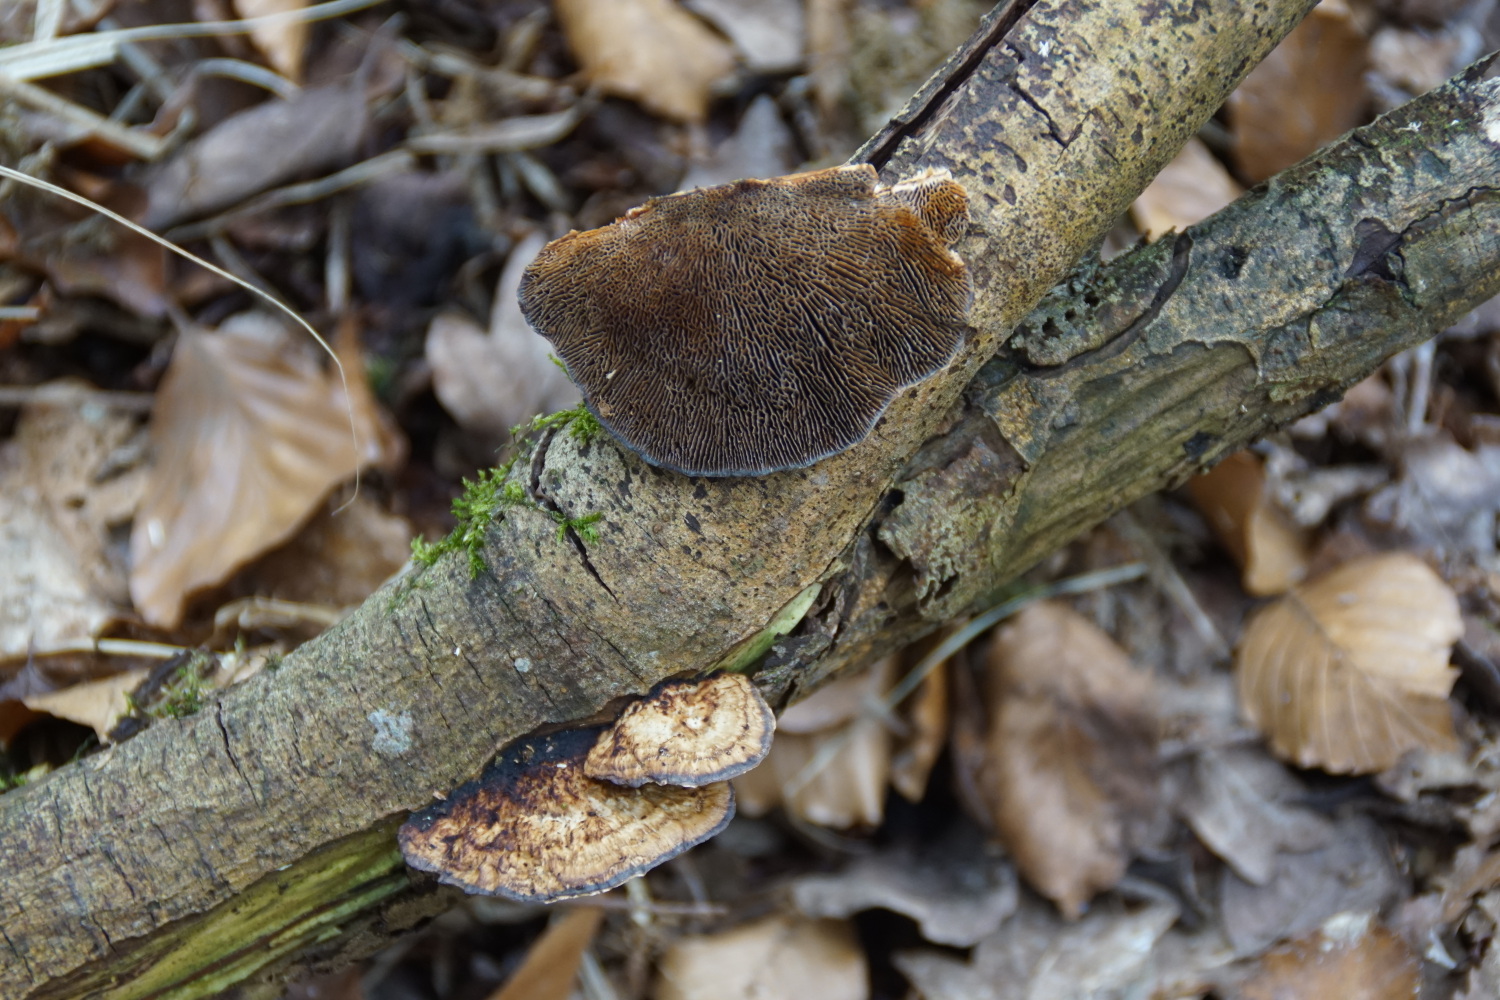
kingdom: Fungi
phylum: Basidiomycota
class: Agaricomycetes
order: Polyporales
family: Polyporaceae
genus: Daedaleopsis
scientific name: Daedaleopsis confragosa
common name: rødmende læderporesvamp
